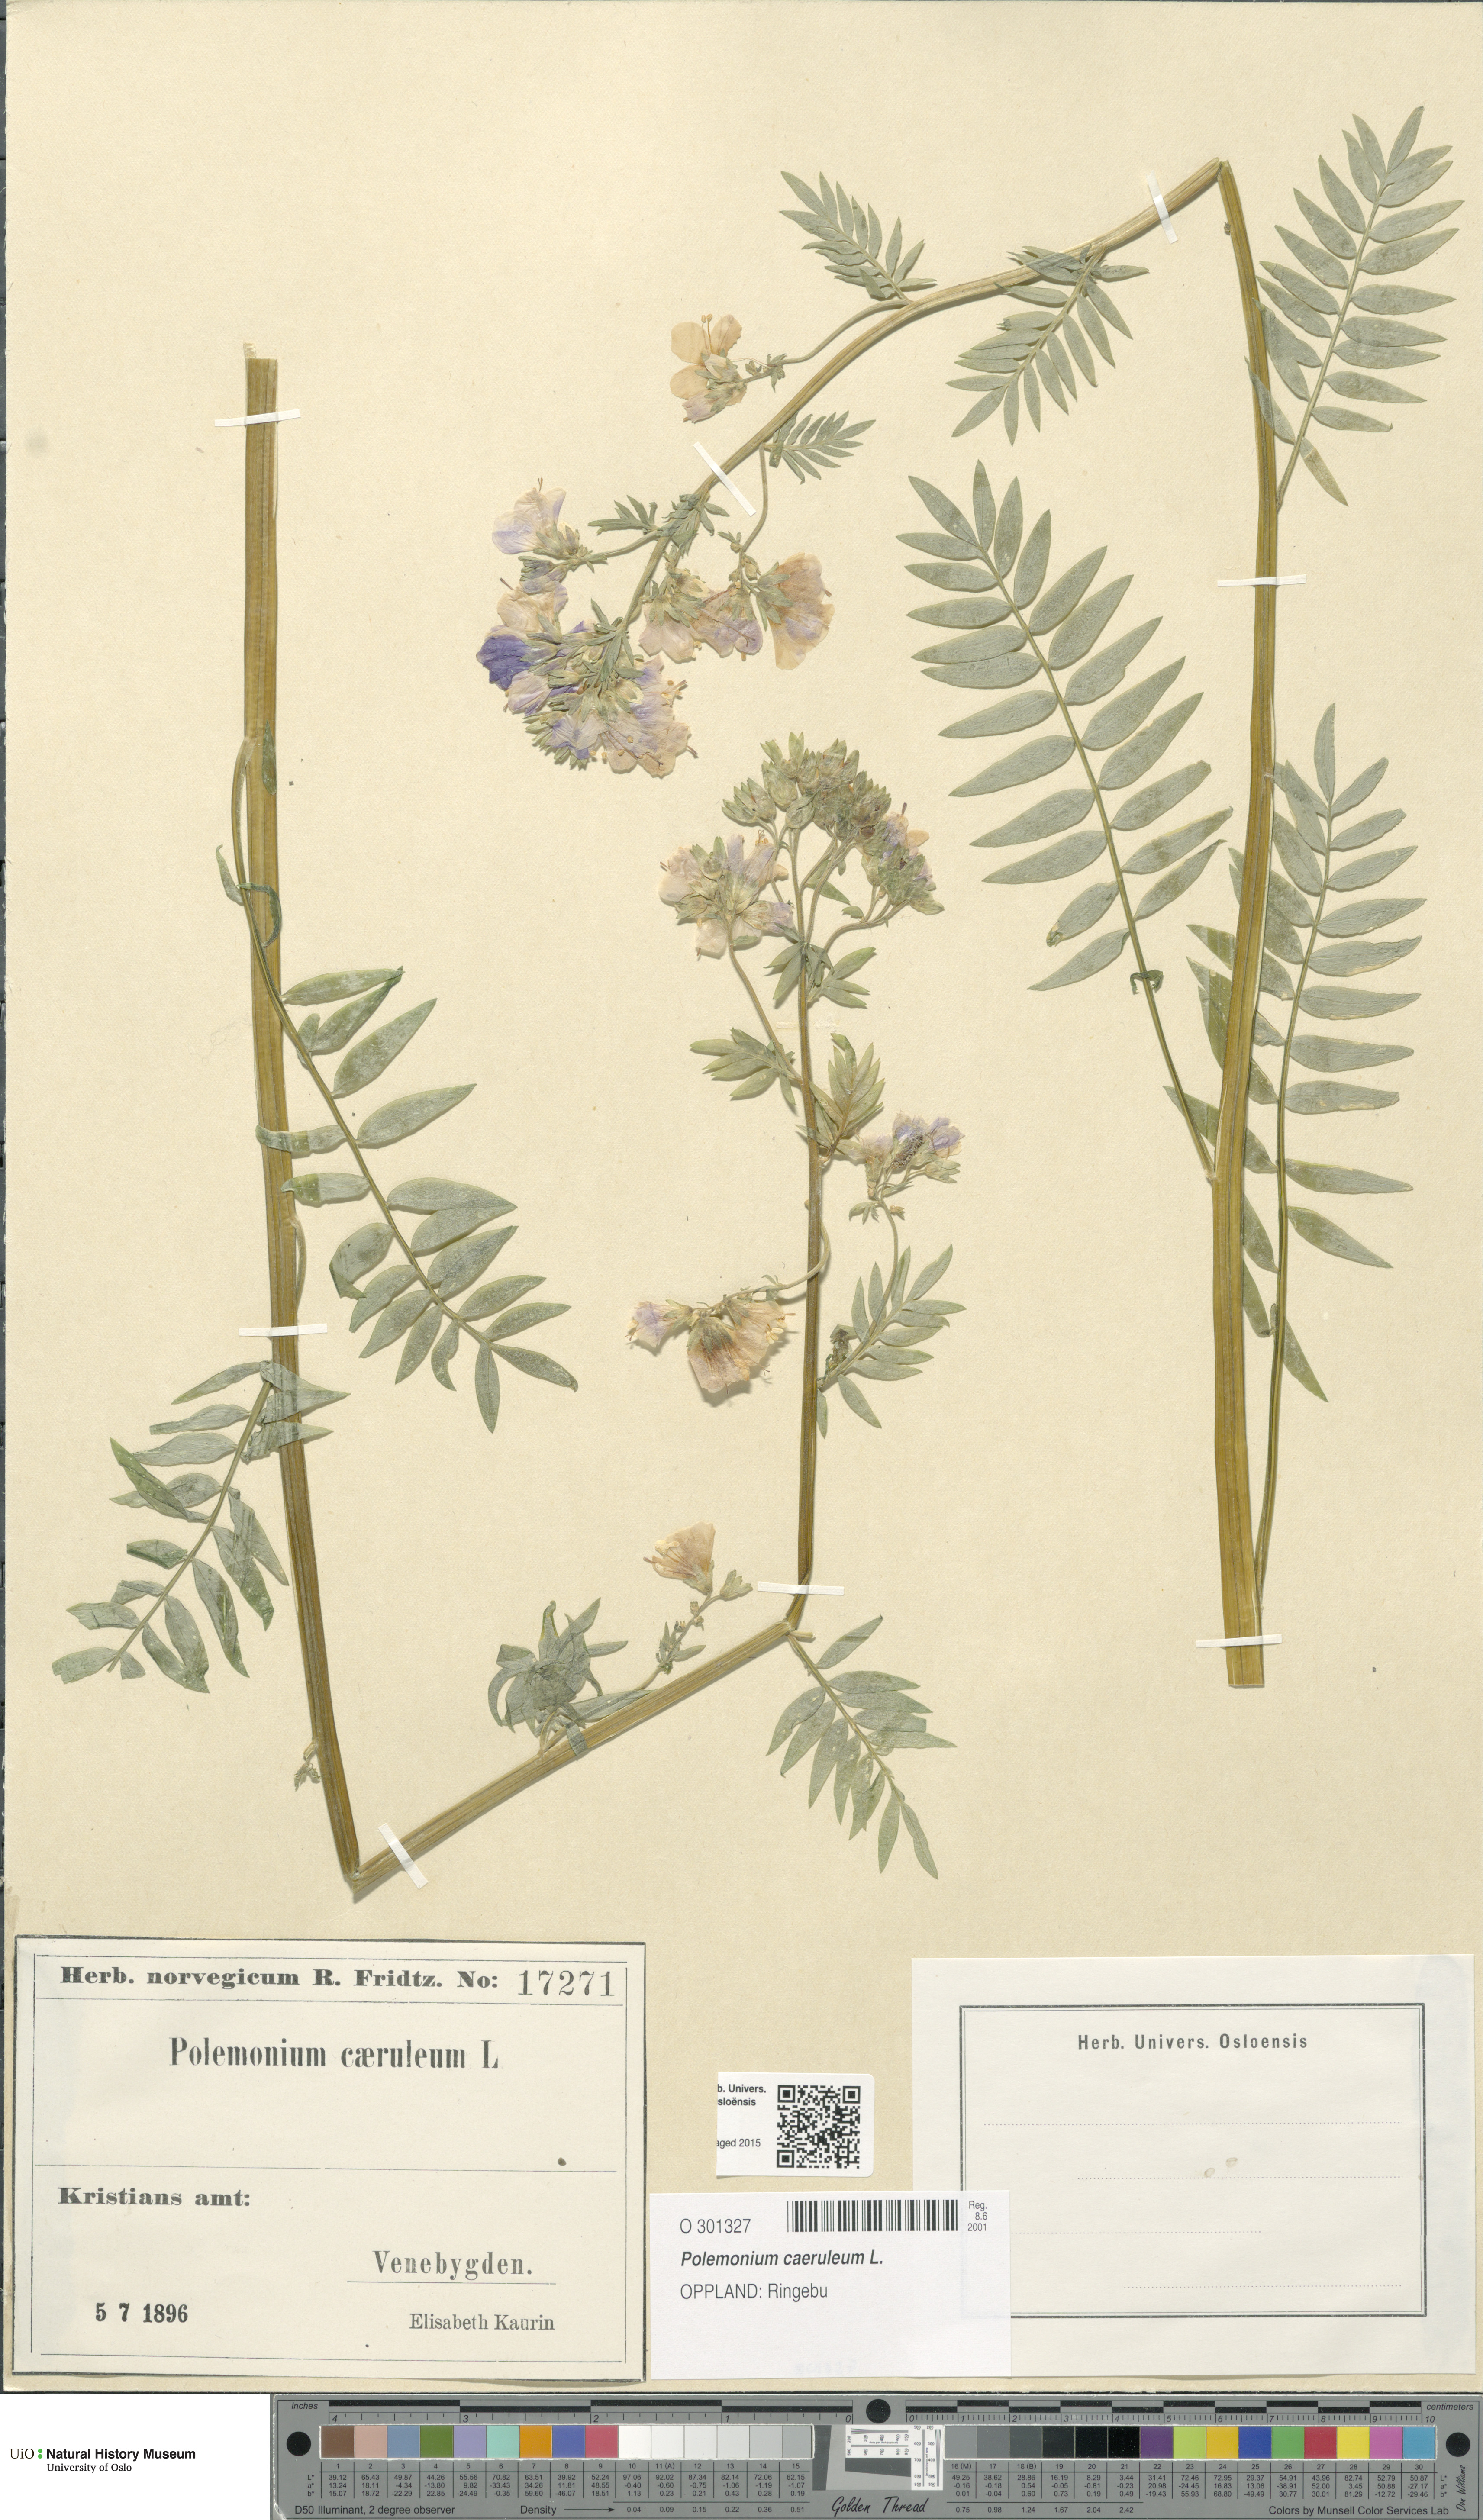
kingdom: Plantae
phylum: Tracheophyta
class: Magnoliopsida
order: Ericales
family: Polemoniaceae
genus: Polemonium
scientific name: Polemonium caeruleum
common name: Jacob's-ladder
